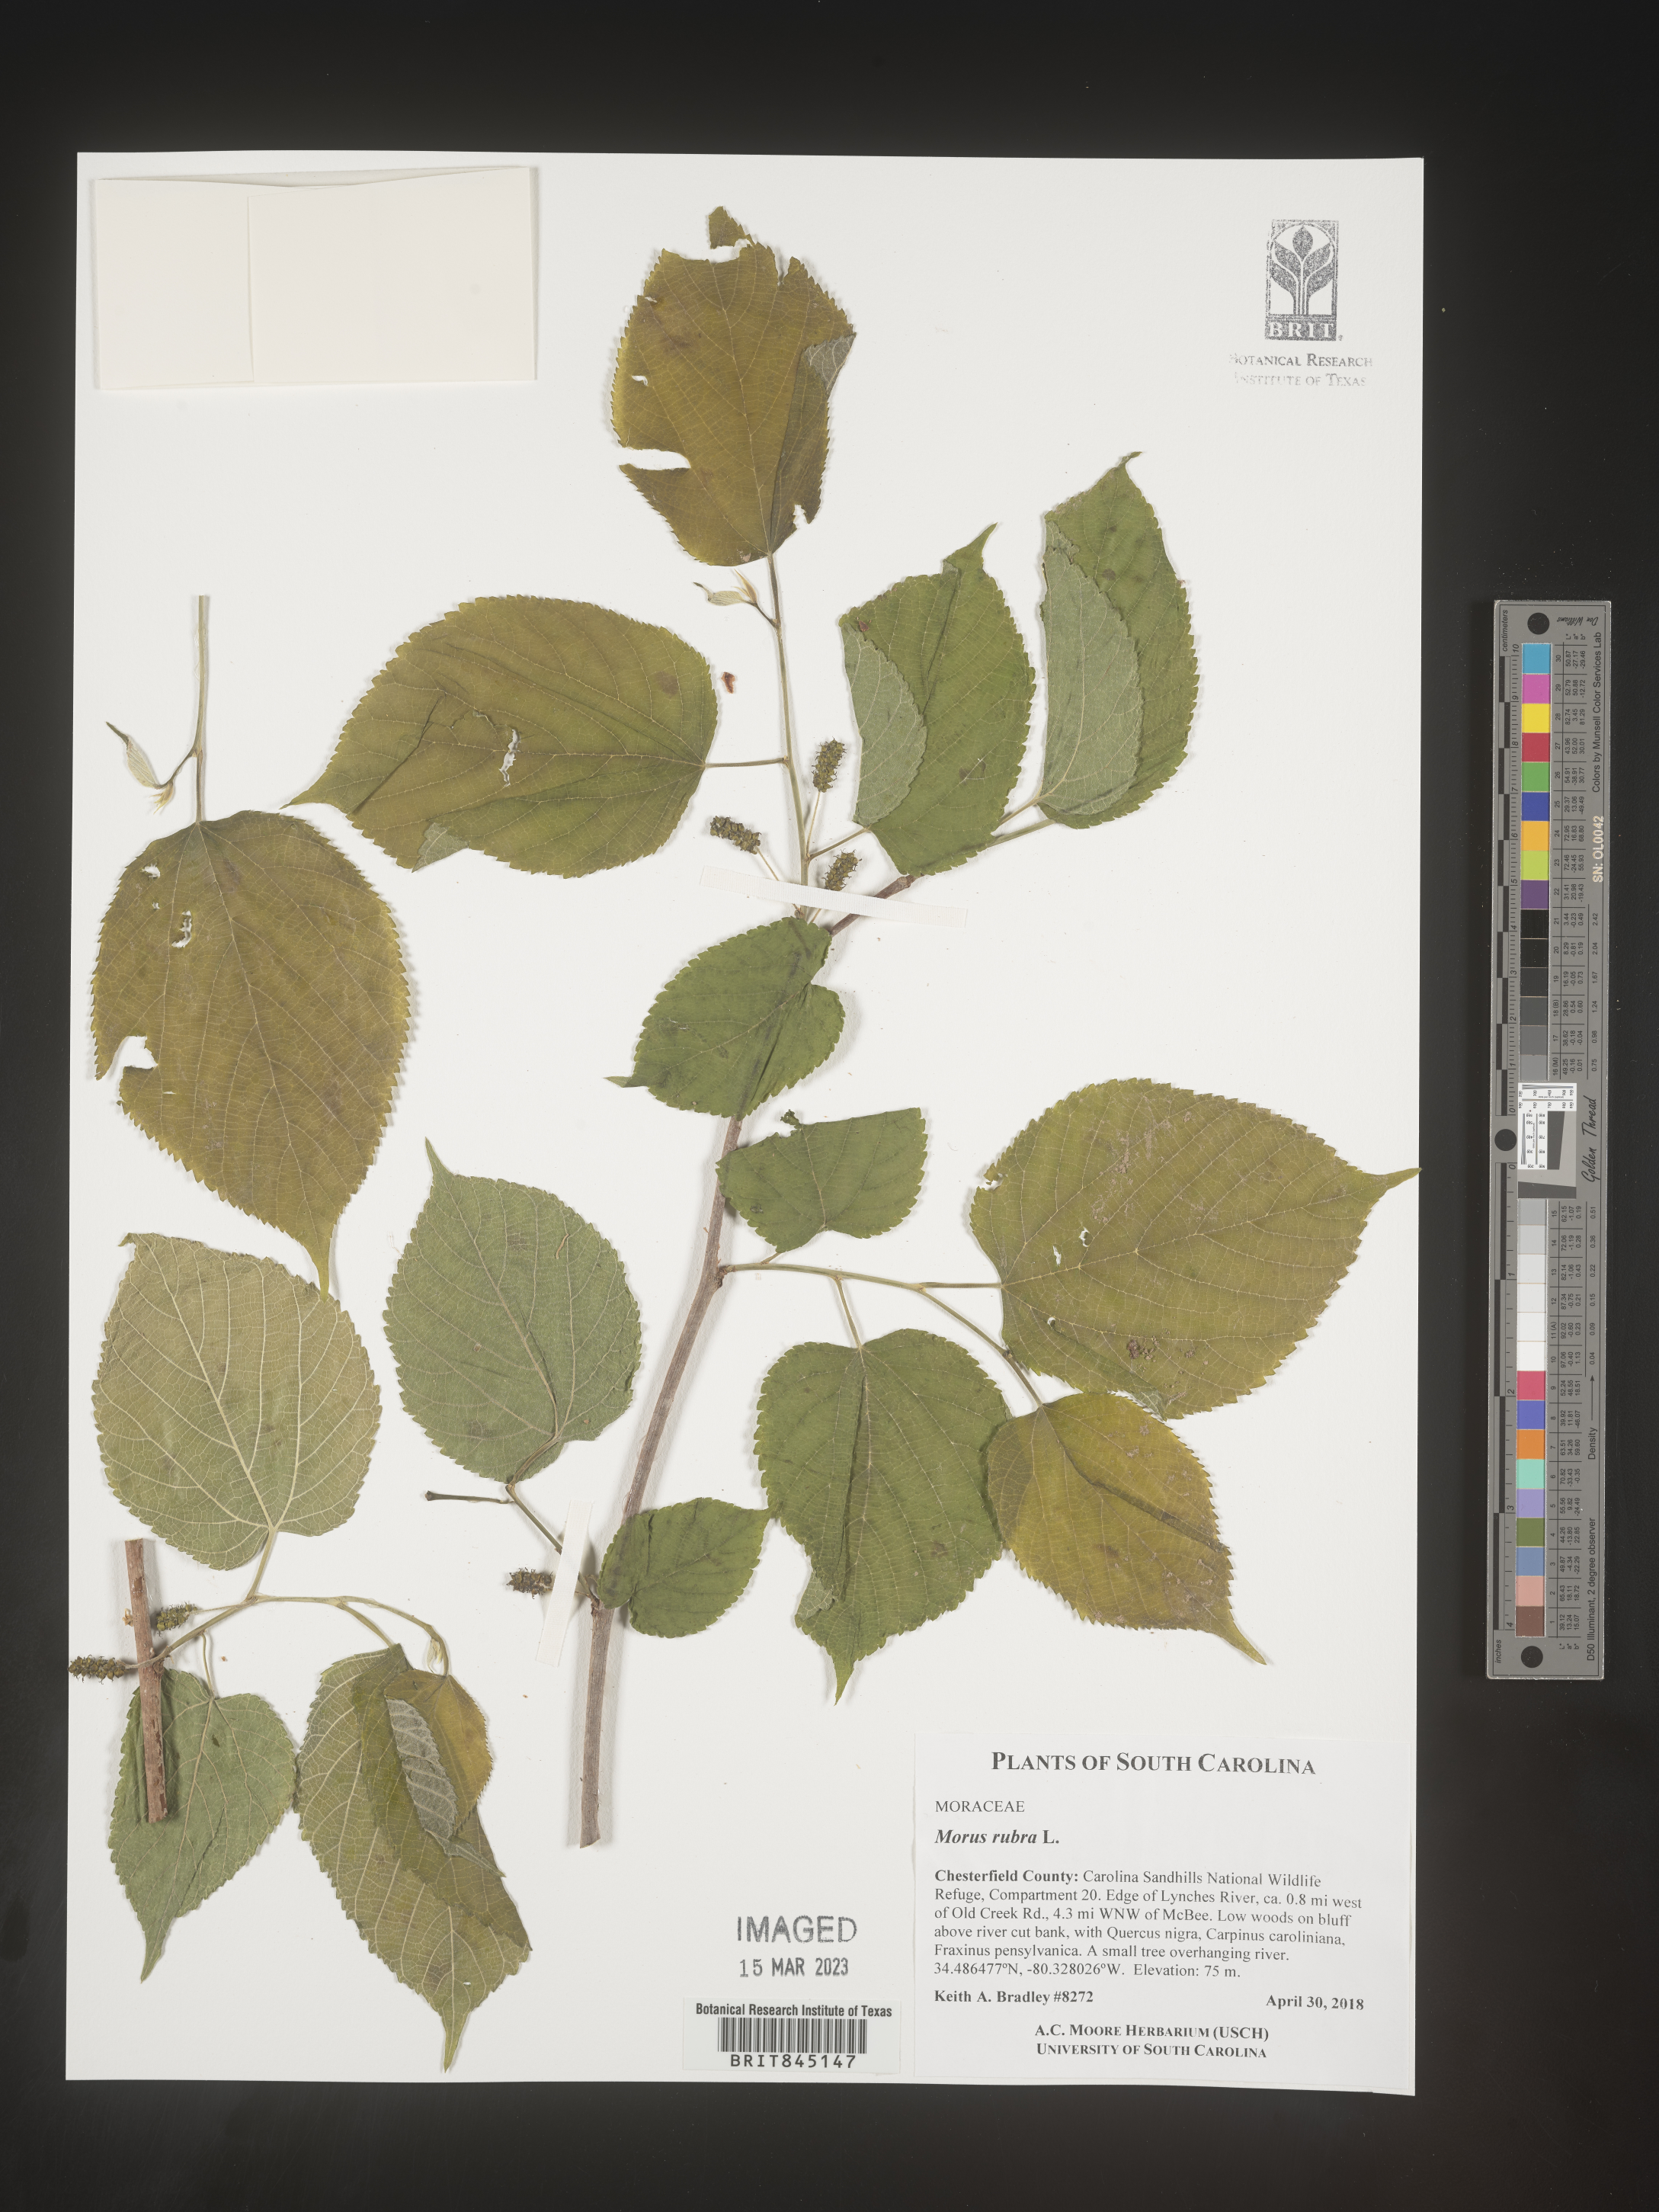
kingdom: Plantae
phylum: Tracheophyta
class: Magnoliopsida
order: Rosales
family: Moraceae
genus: Morus
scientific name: Morus rubra
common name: Red mulberry
